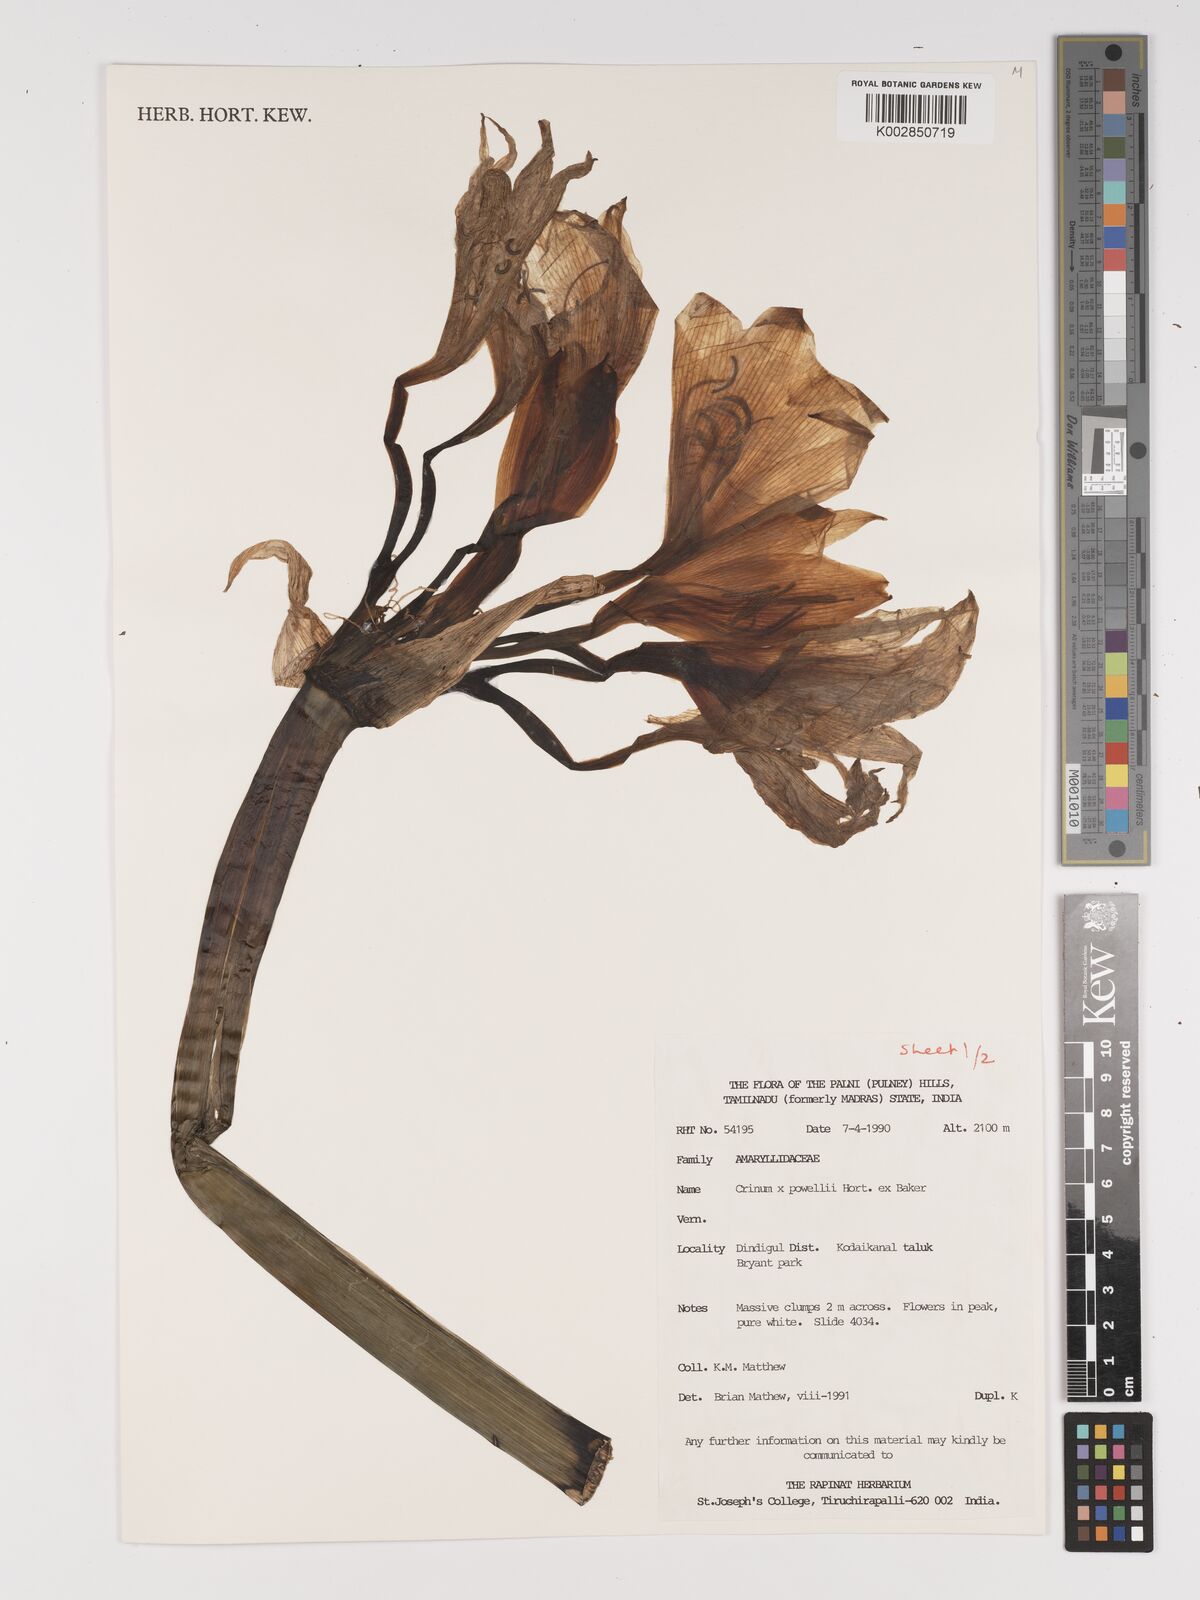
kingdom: Plantae
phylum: Tracheophyta
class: Liliopsida
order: Asparagales
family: Amaryllidaceae
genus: Crinum
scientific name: Crinum powellii
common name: Powell's cape-lily
